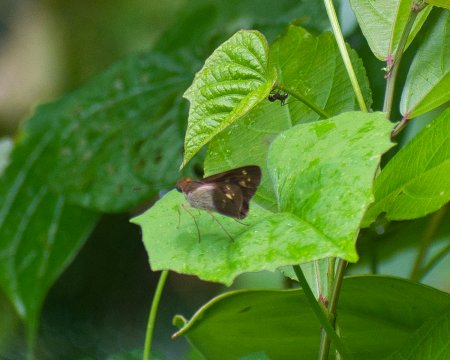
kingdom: Animalia
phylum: Arthropoda
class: Insecta
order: Lepidoptera
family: Hesperiidae
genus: Saliana
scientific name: Saliana esperi
